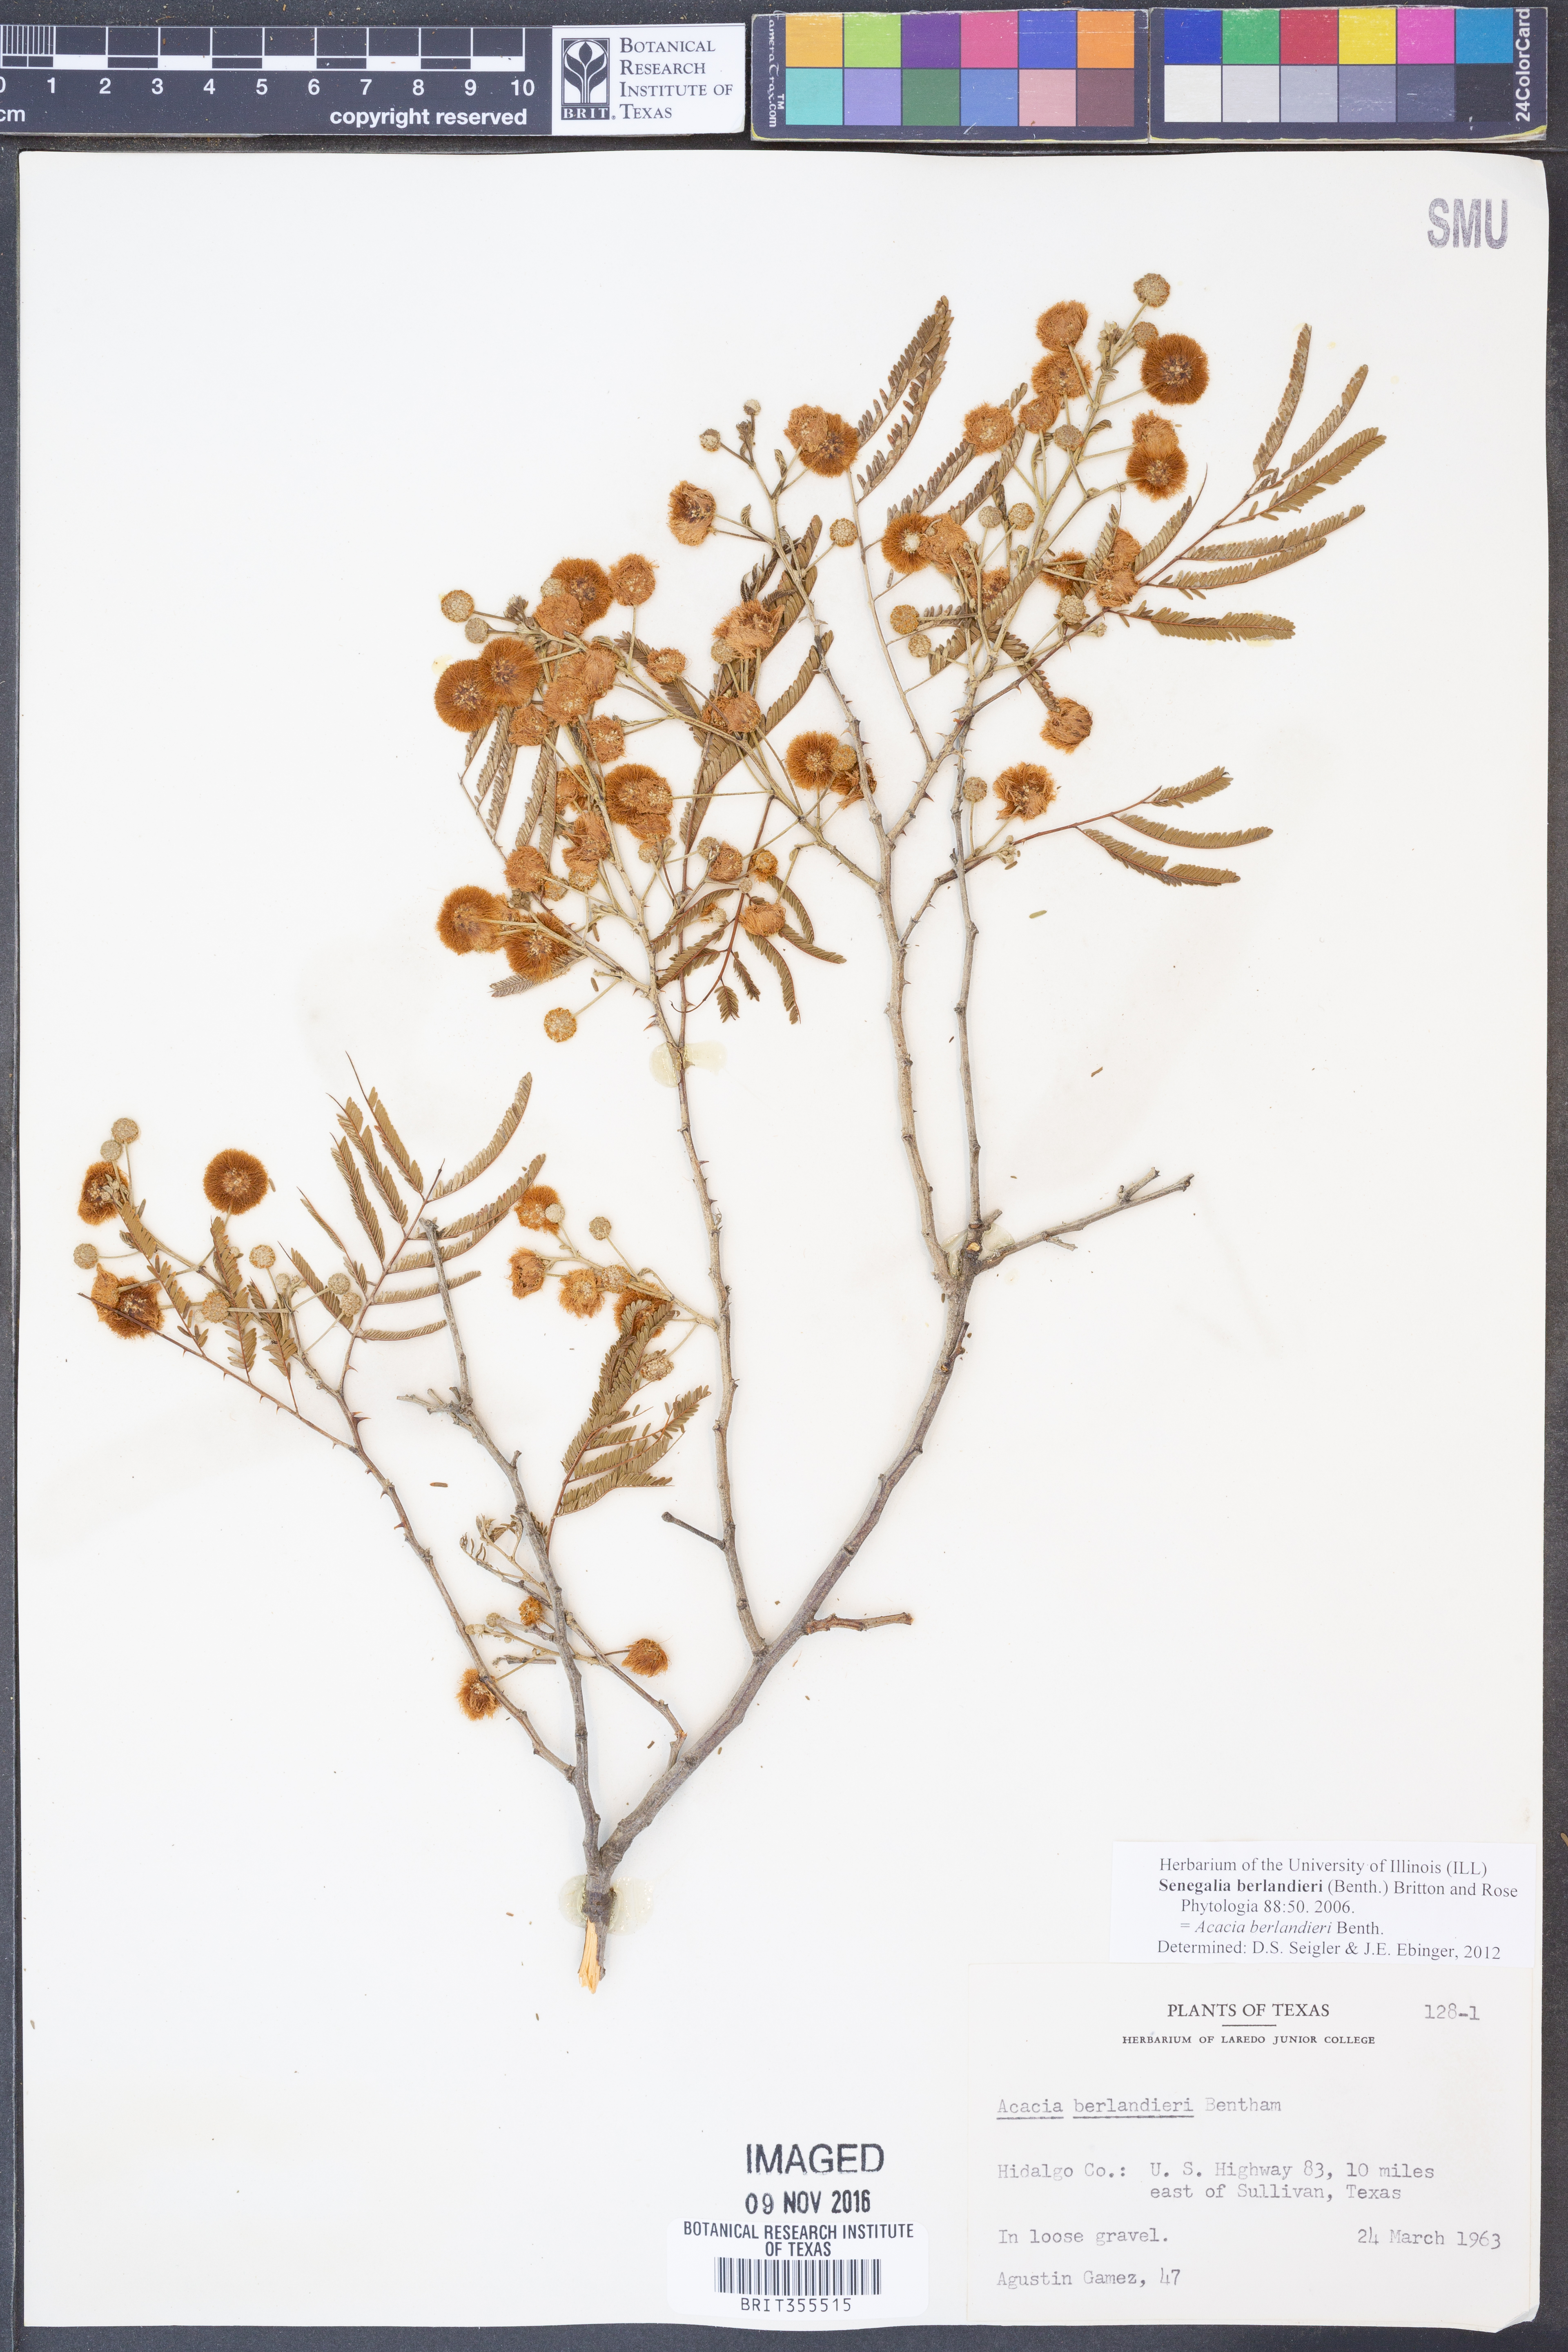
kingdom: Plantae
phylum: Tracheophyta
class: Magnoliopsida
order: Fabales
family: Fabaceae
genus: Senegalia
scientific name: Senegalia berlandieri
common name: Berlandier acacia
